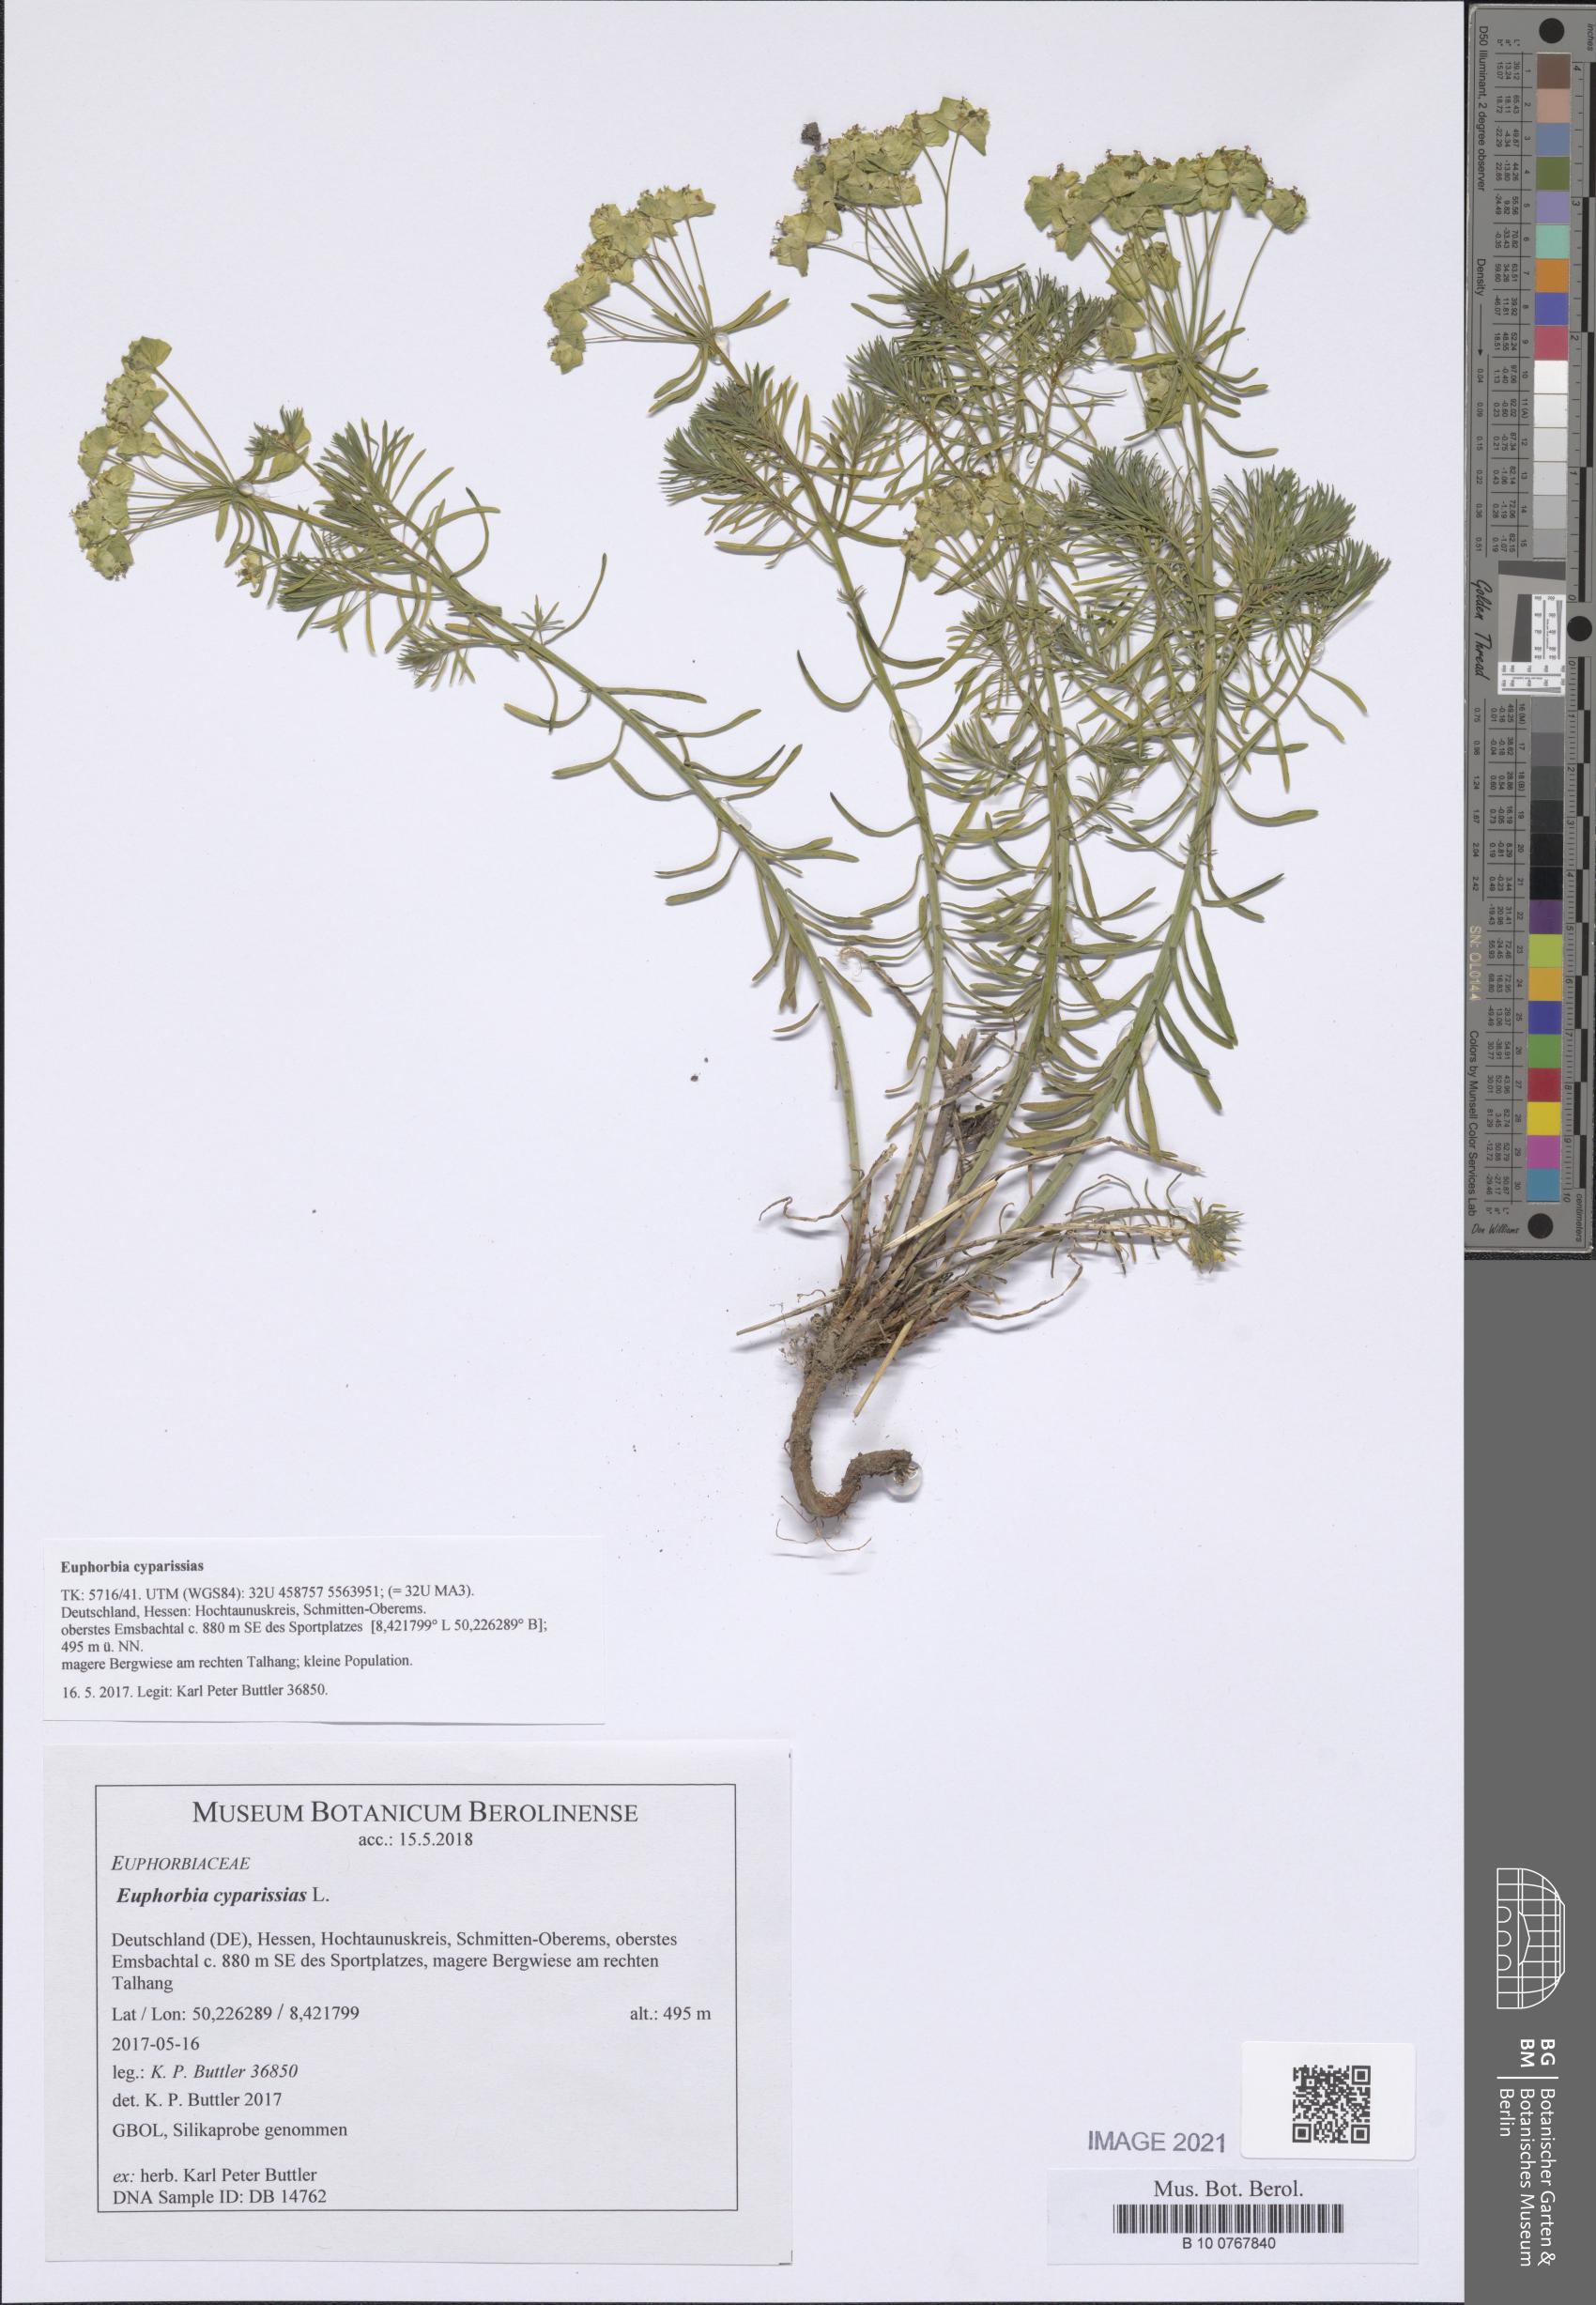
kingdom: Plantae
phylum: Tracheophyta
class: Magnoliopsida
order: Malpighiales
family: Euphorbiaceae
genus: Euphorbia
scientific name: Euphorbia cyparissias
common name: Cypress spurge
